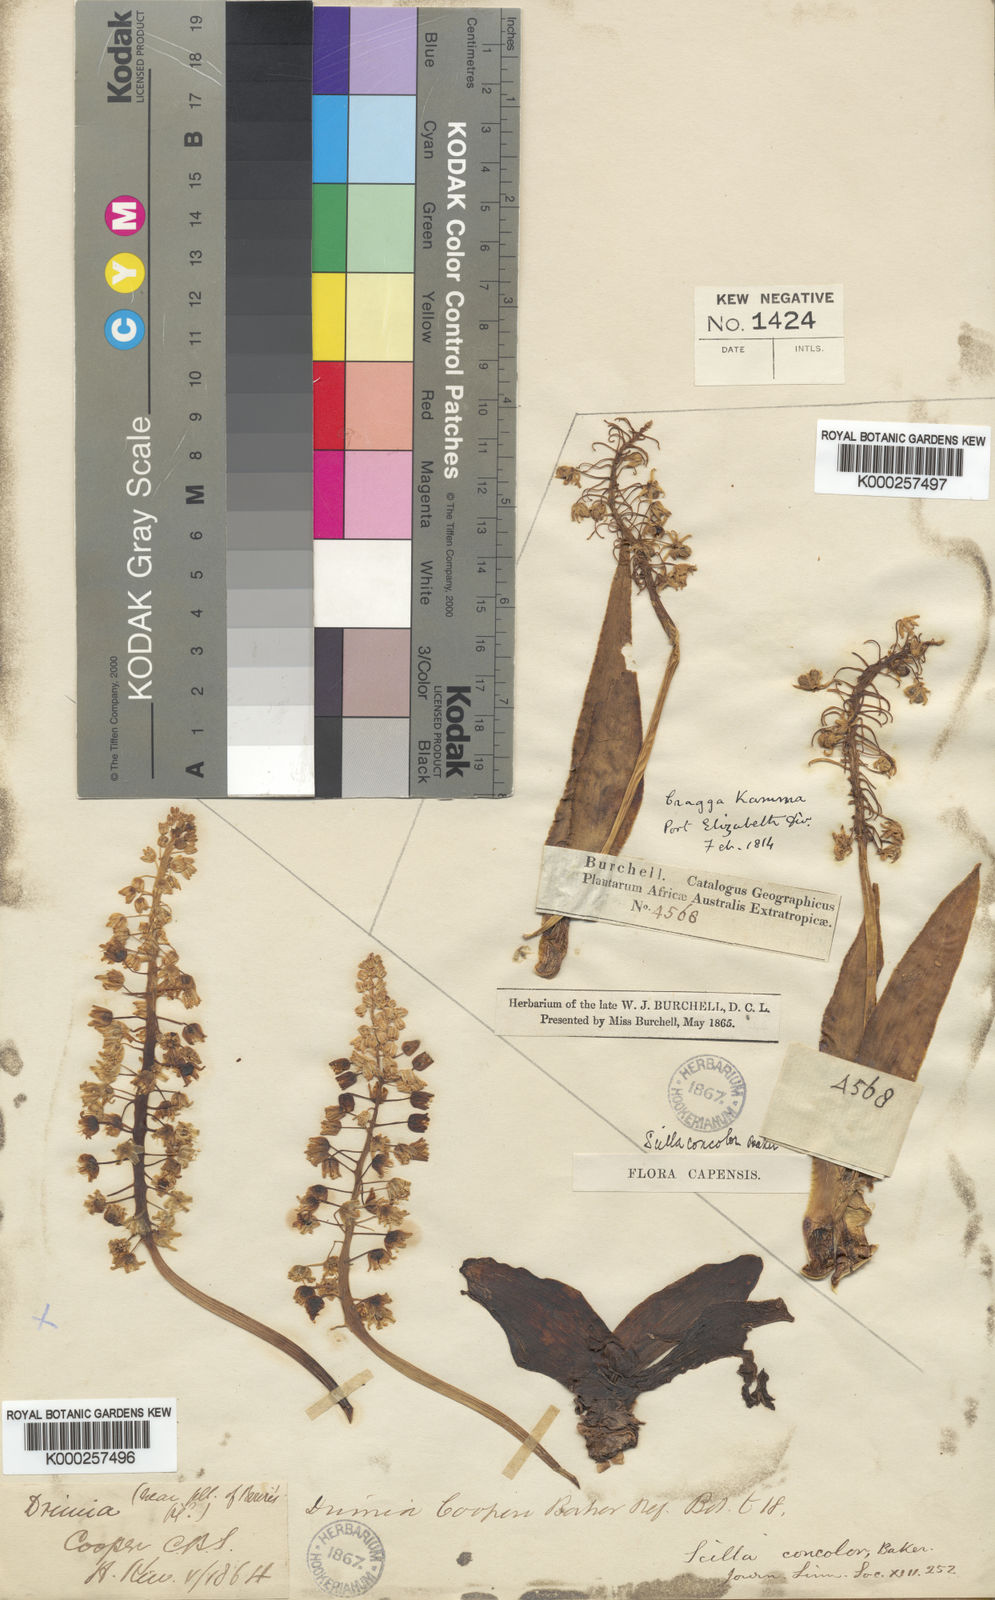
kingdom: Plantae
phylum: Tracheophyta
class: Liliopsida
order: Asparagales
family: Asparagaceae
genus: Ledebouria
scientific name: Ledebouria nitida
